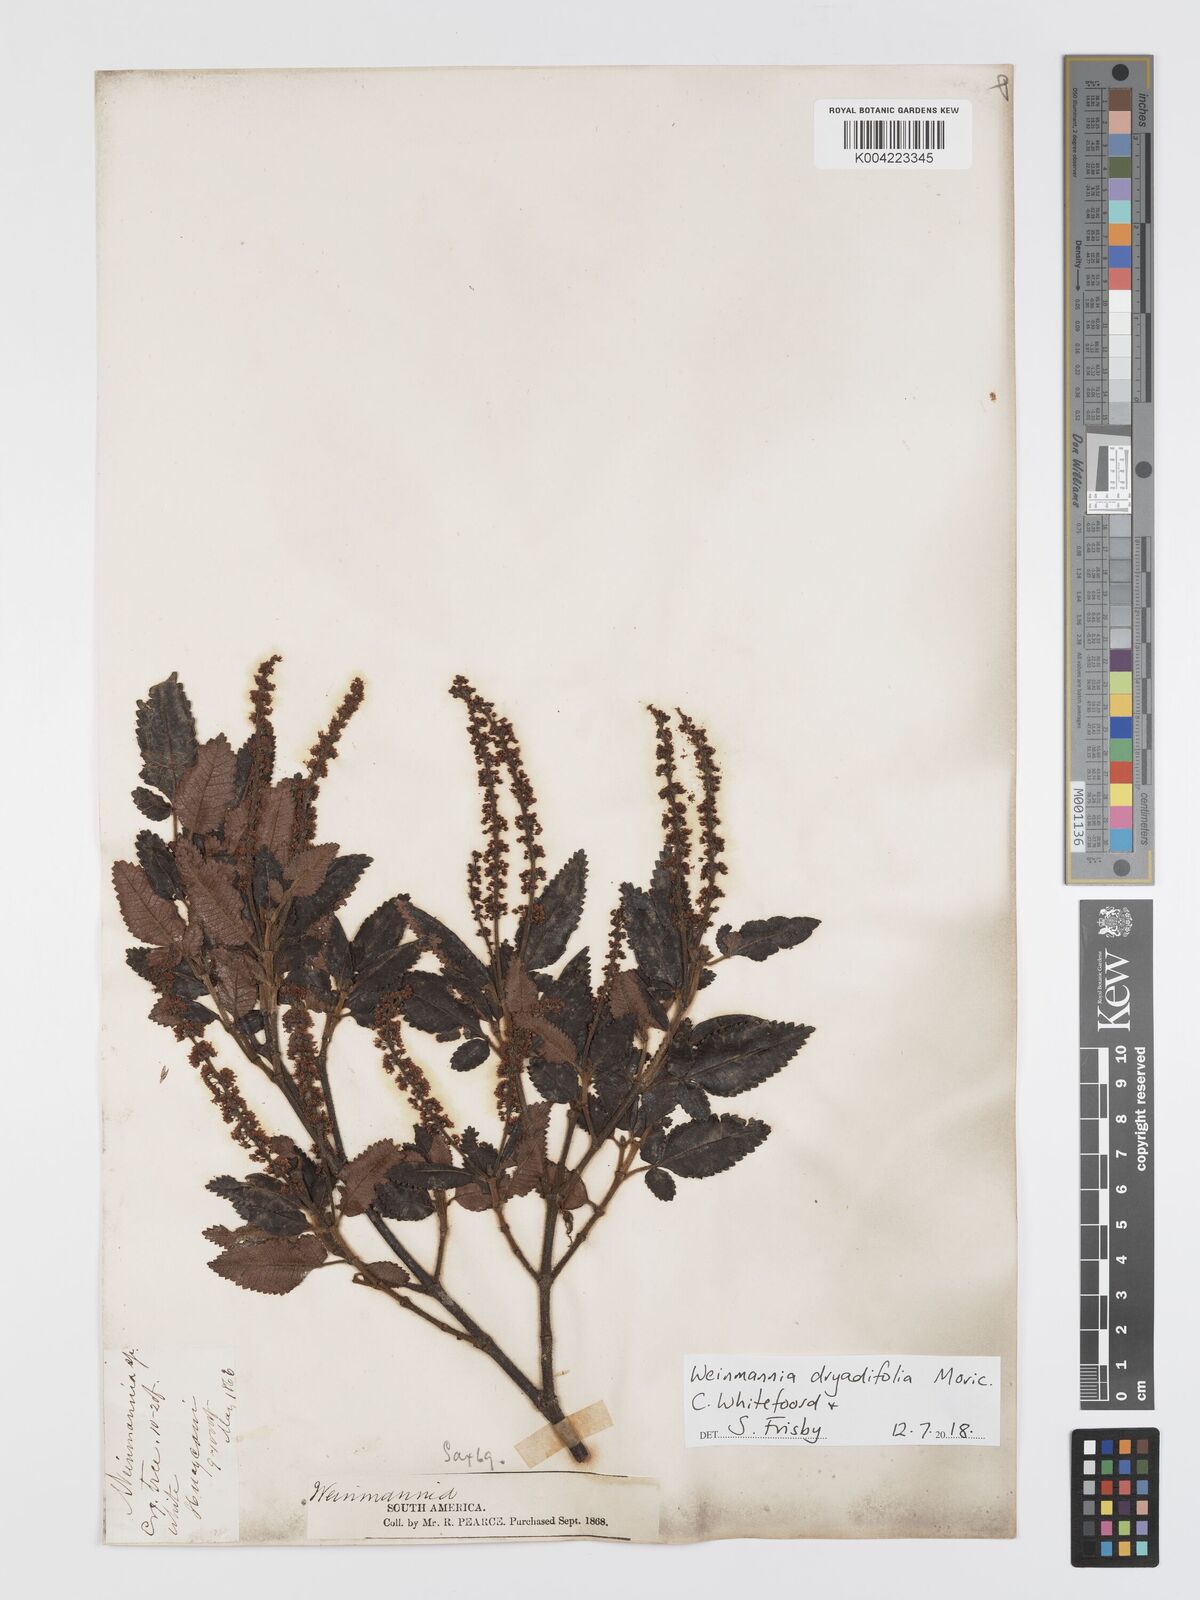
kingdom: Plantae
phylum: Tracheophyta
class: Magnoliopsida
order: Oxalidales
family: Cunoniaceae
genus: Weinmannia
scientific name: Weinmannia auriculata
